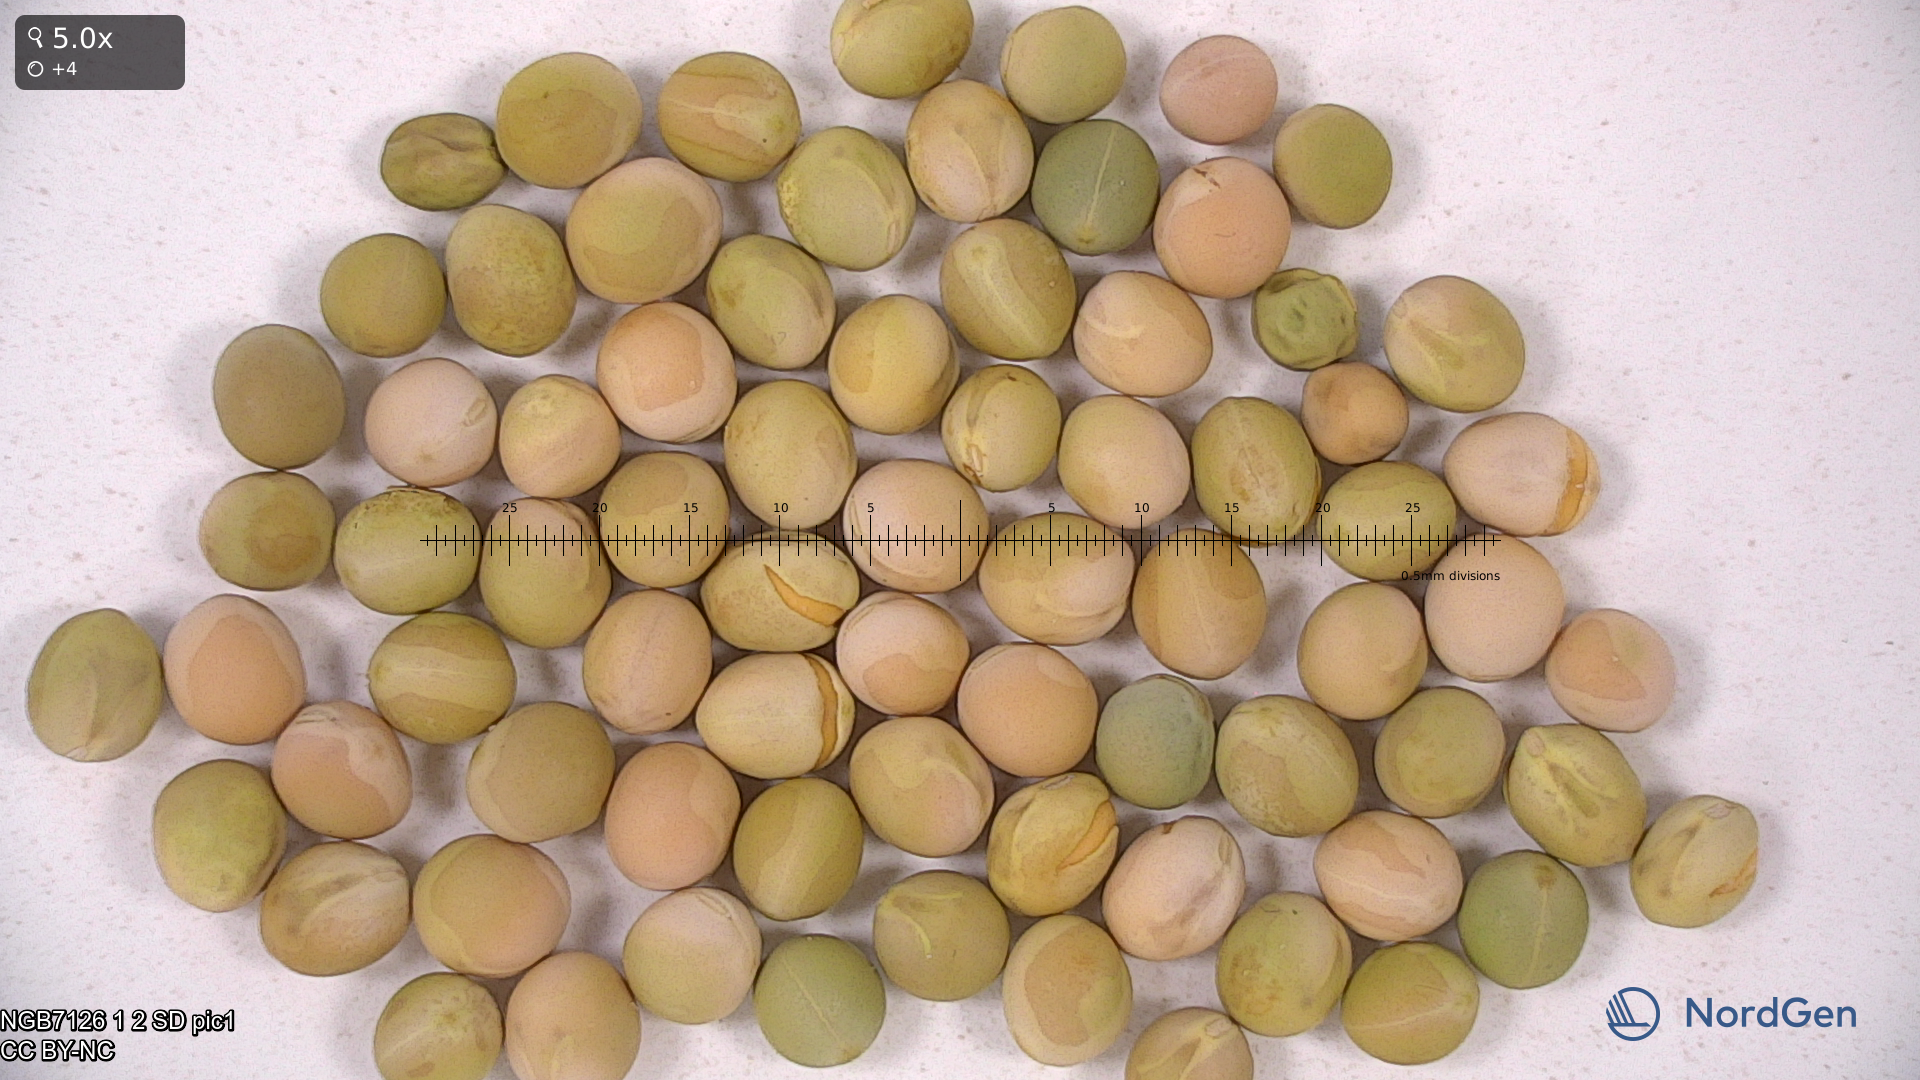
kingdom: Plantae
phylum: Tracheophyta
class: Magnoliopsida
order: Fabales
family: Fabaceae
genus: Lathyrus
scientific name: Lathyrus oleraceus
